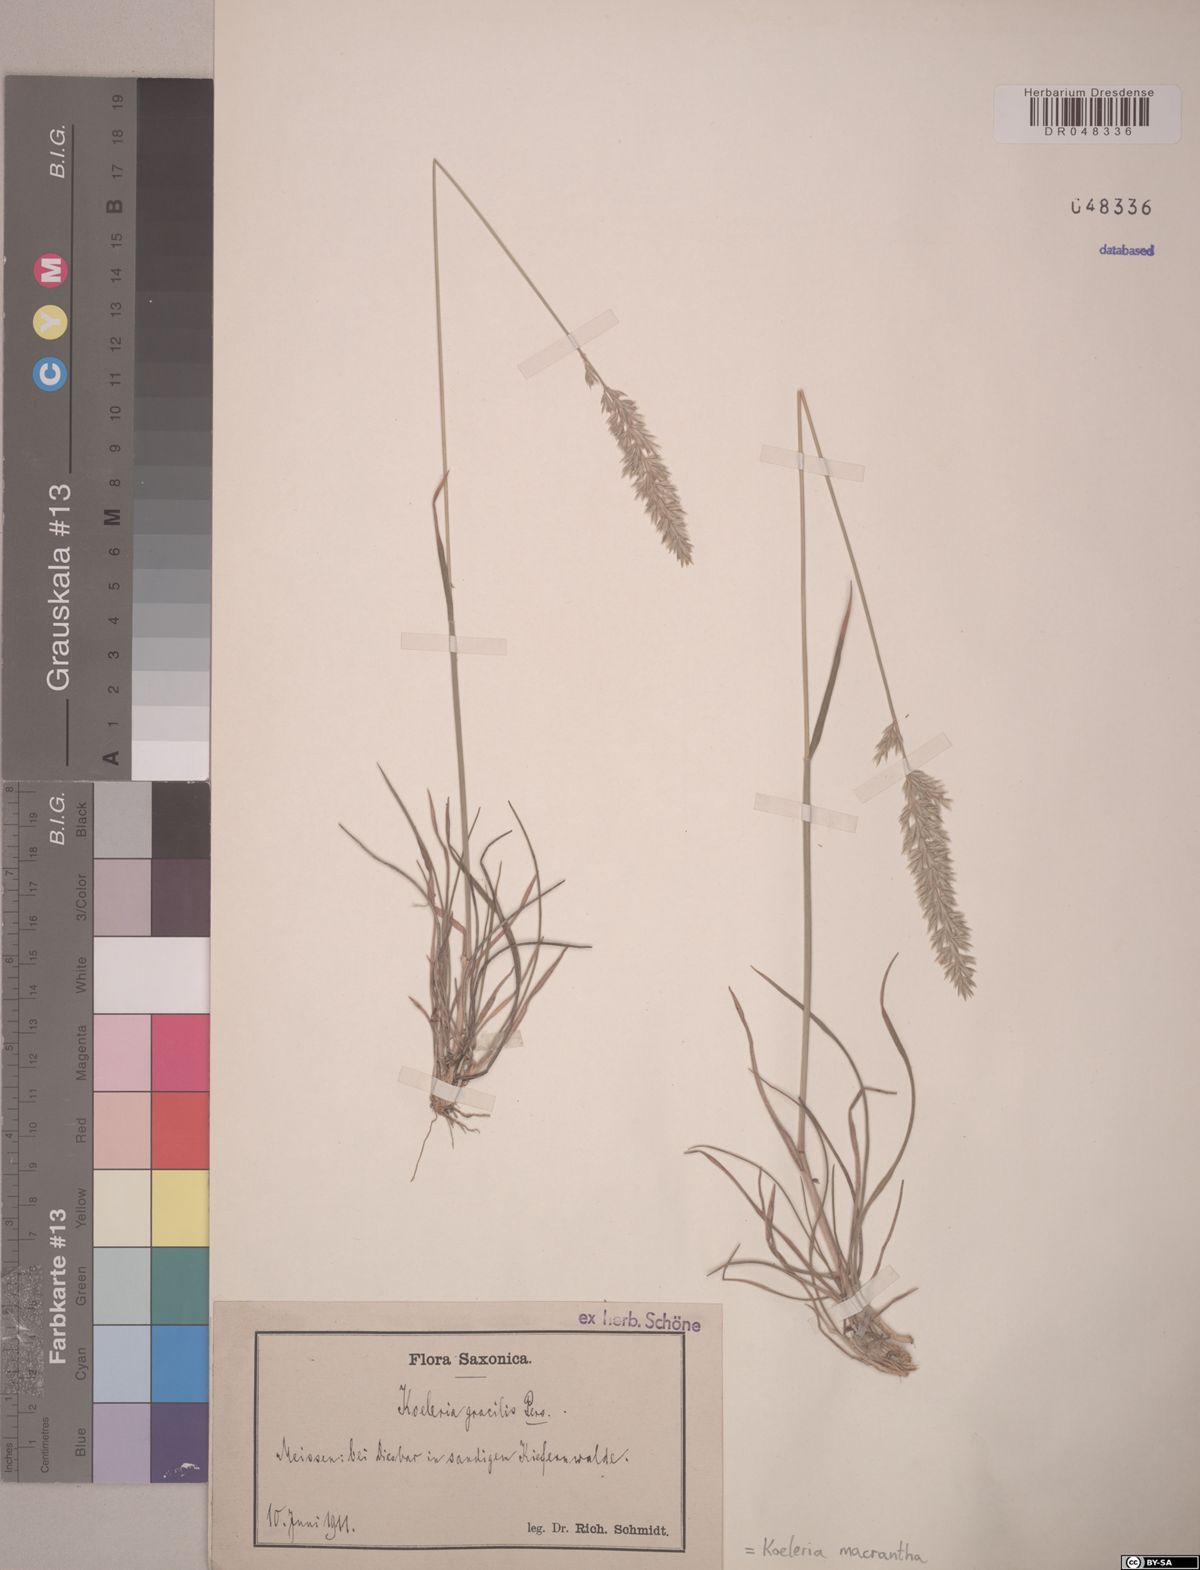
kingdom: Plantae
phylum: Tracheophyta
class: Liliopsida
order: Poales
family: Poaceae
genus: Koeleria
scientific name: Koeleria macrantha
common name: Crested hair-grass
